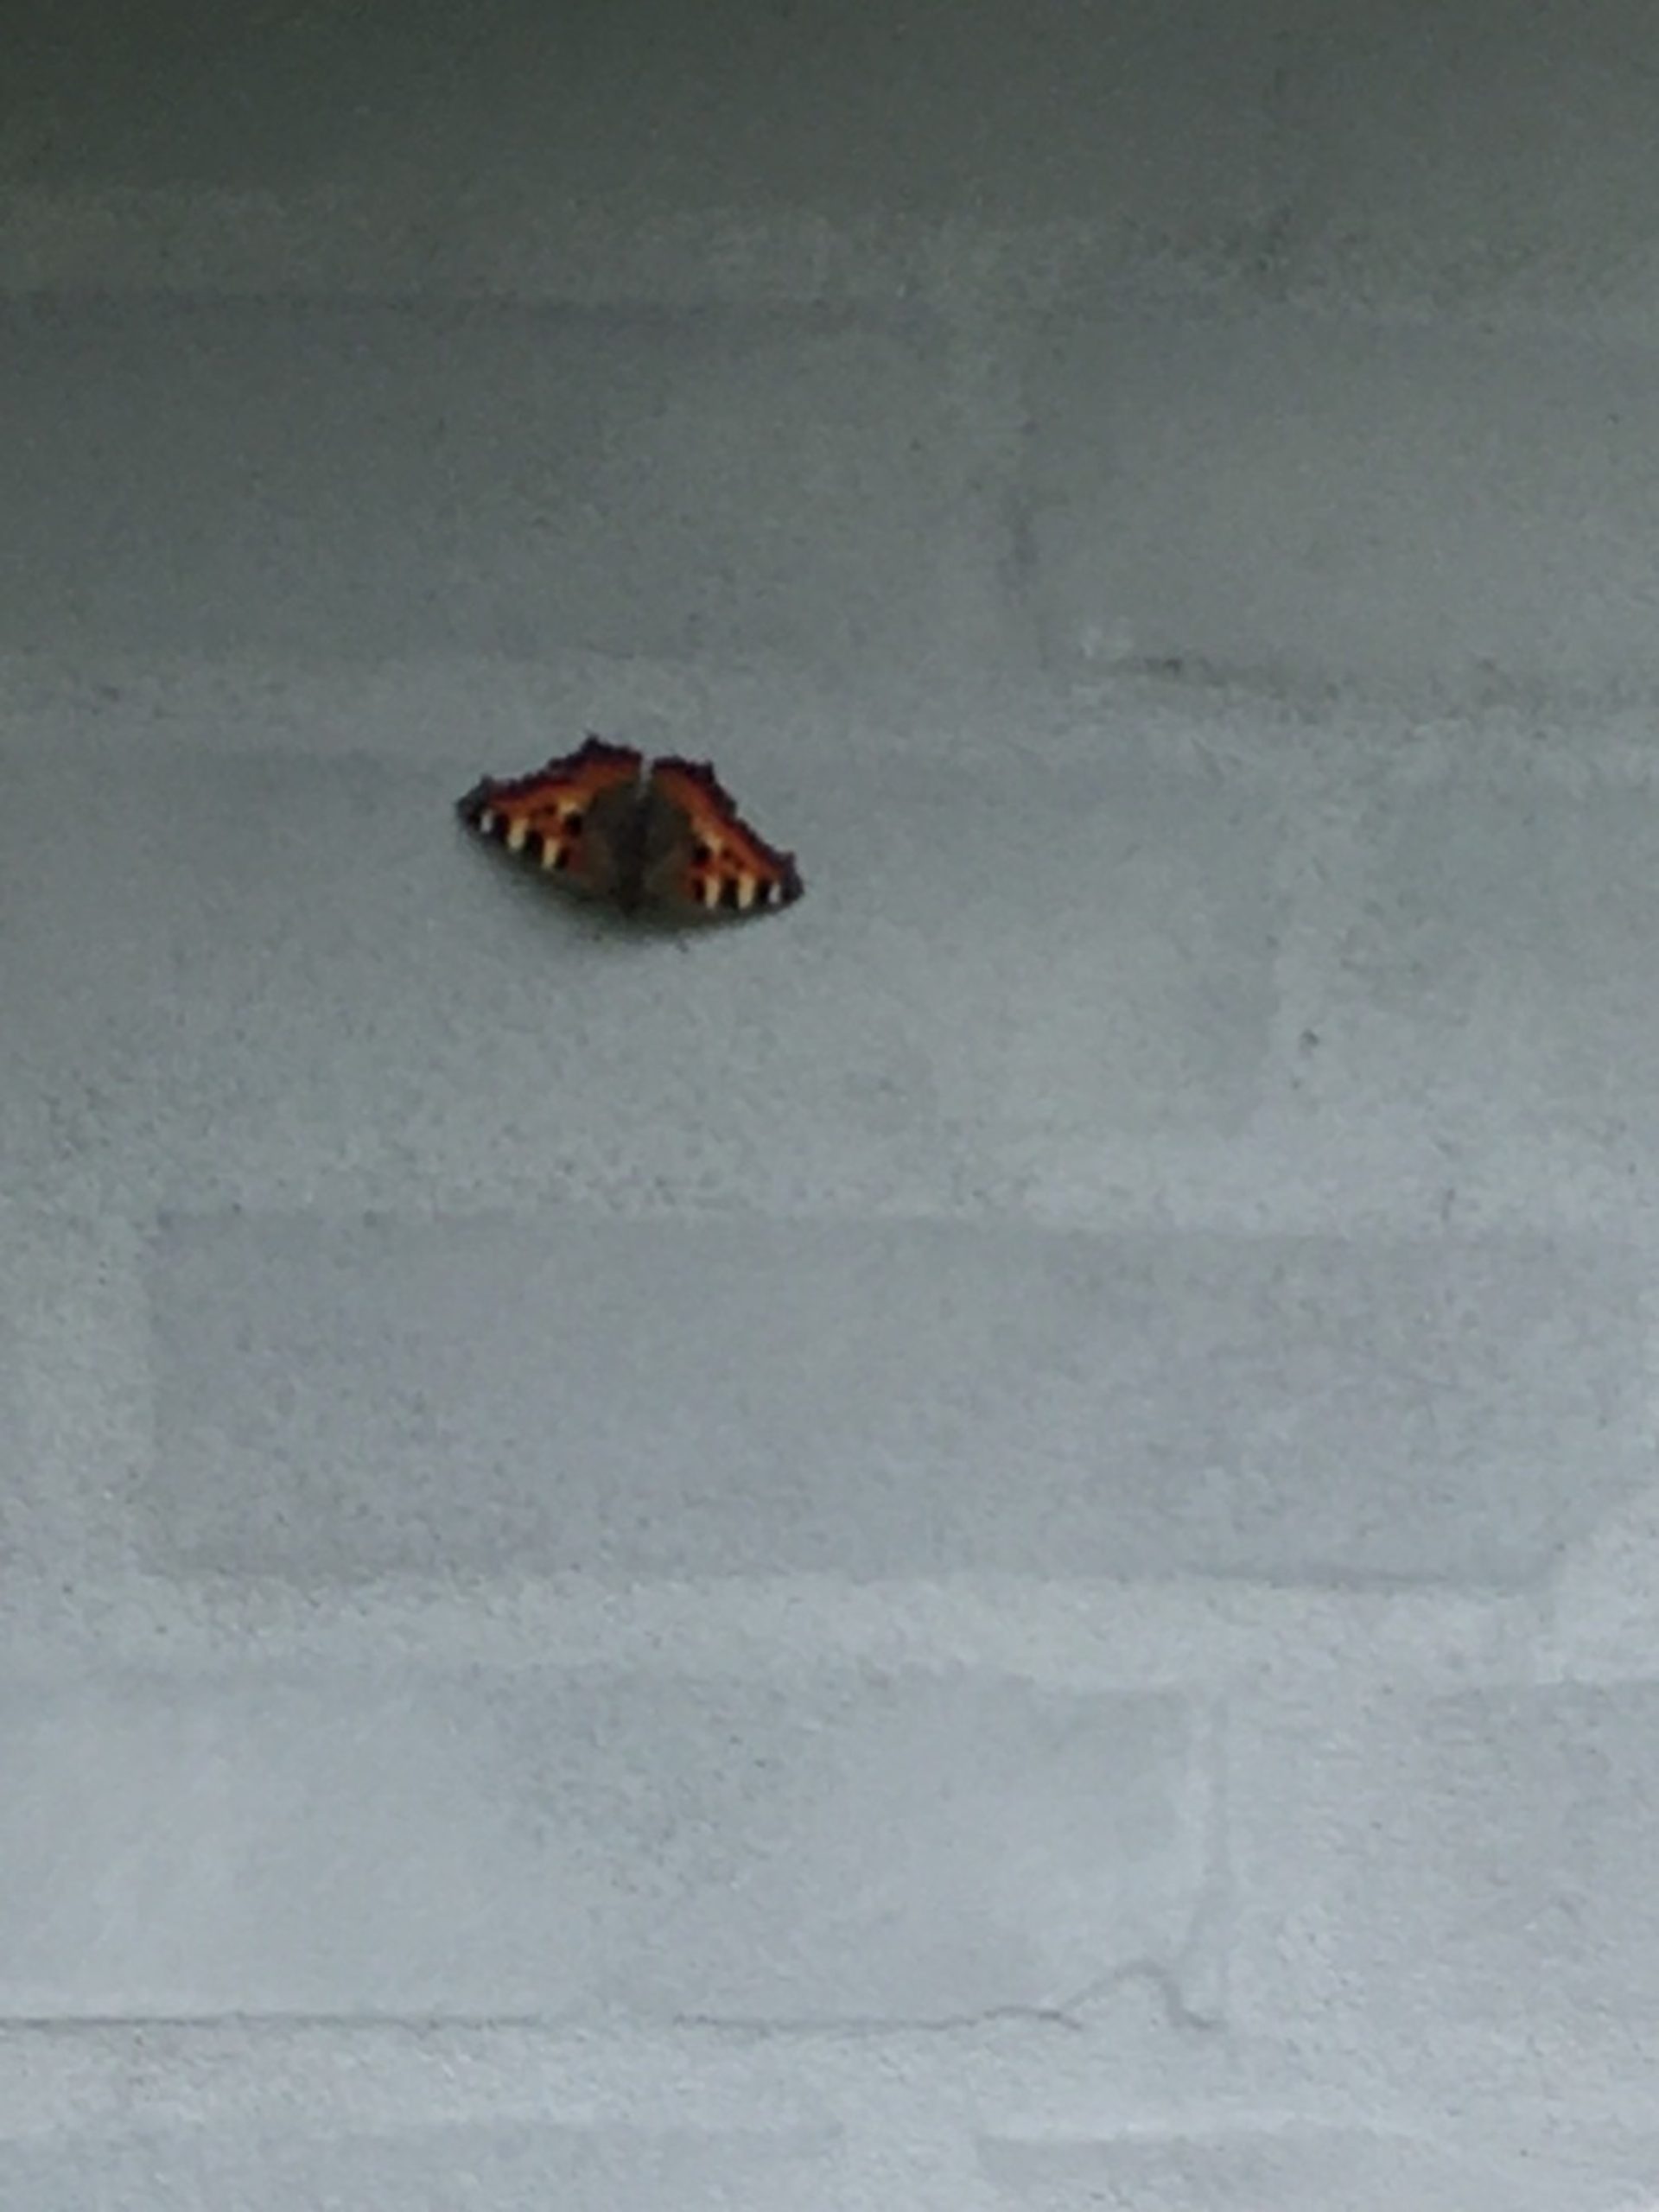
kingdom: Animalia
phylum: Arthropoda
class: Insecta
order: Lepidoptera
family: Nymphalidae
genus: Aglais
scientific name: Aglais urticae
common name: Nældens takvinge
